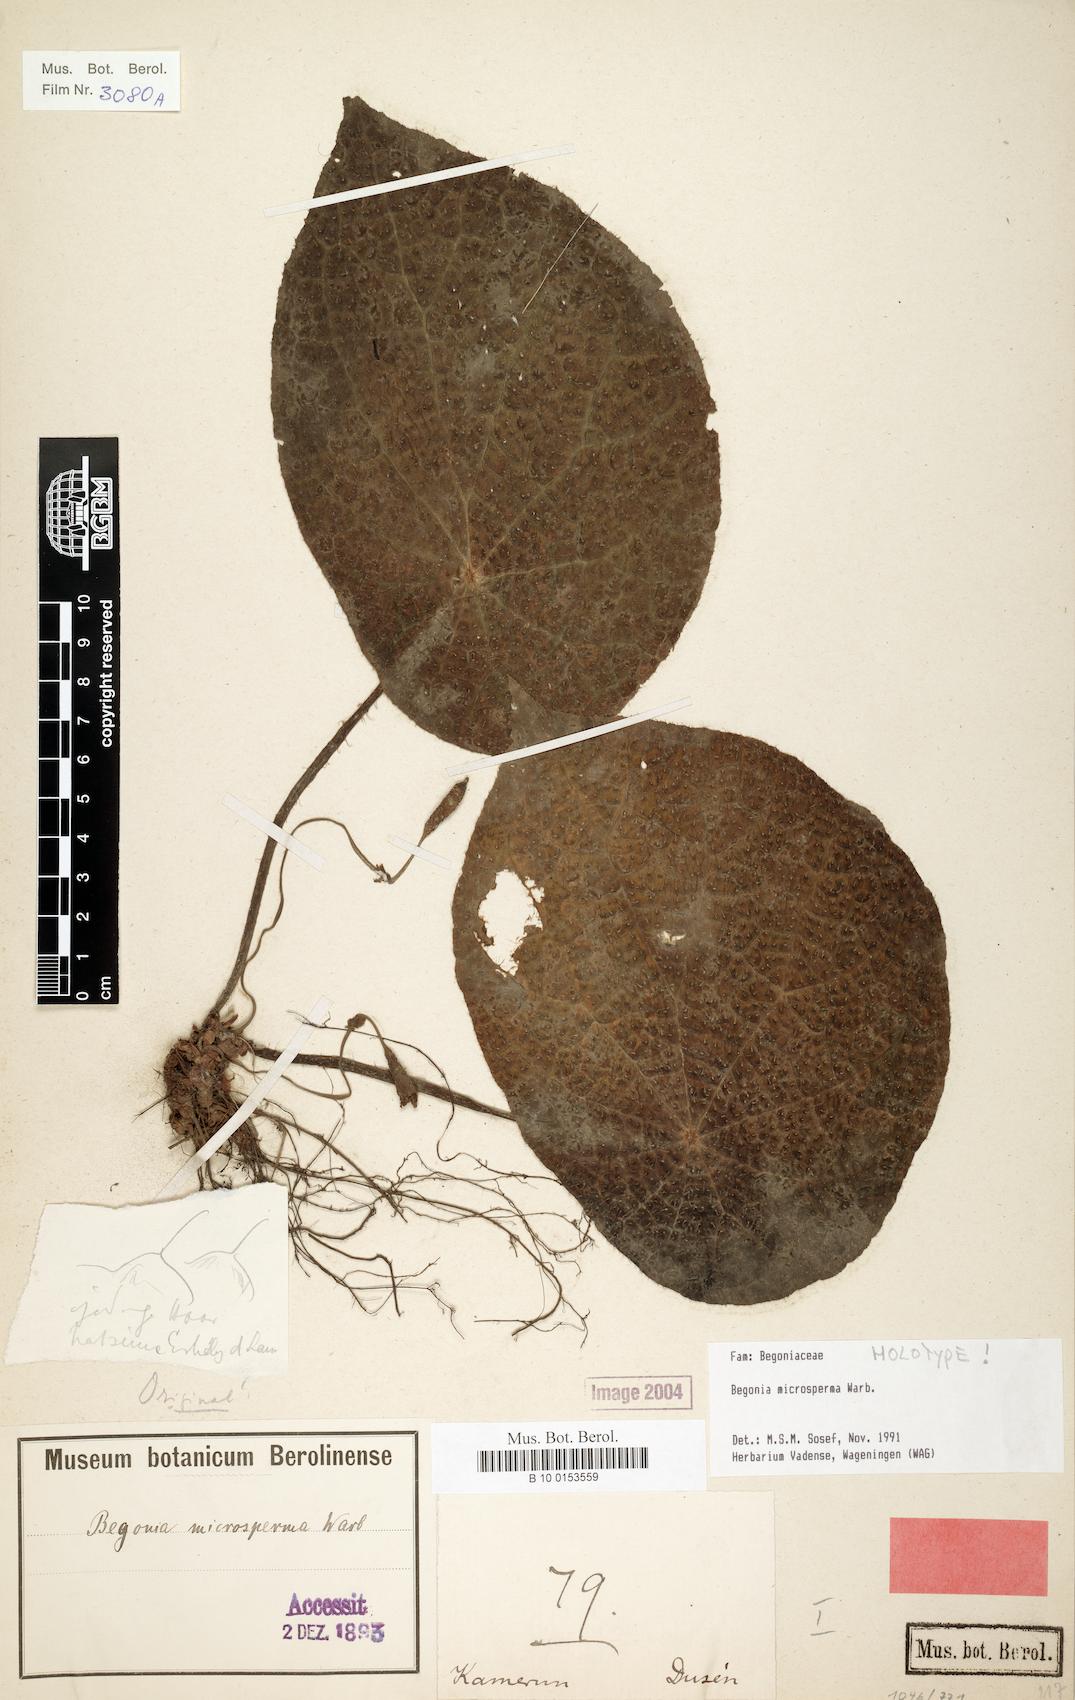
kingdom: Plantae
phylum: Tracheophyta
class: Magnoliopsida
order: Cucurbitales
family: Begoniaceae
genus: Begonia
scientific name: Begonia microsperma
